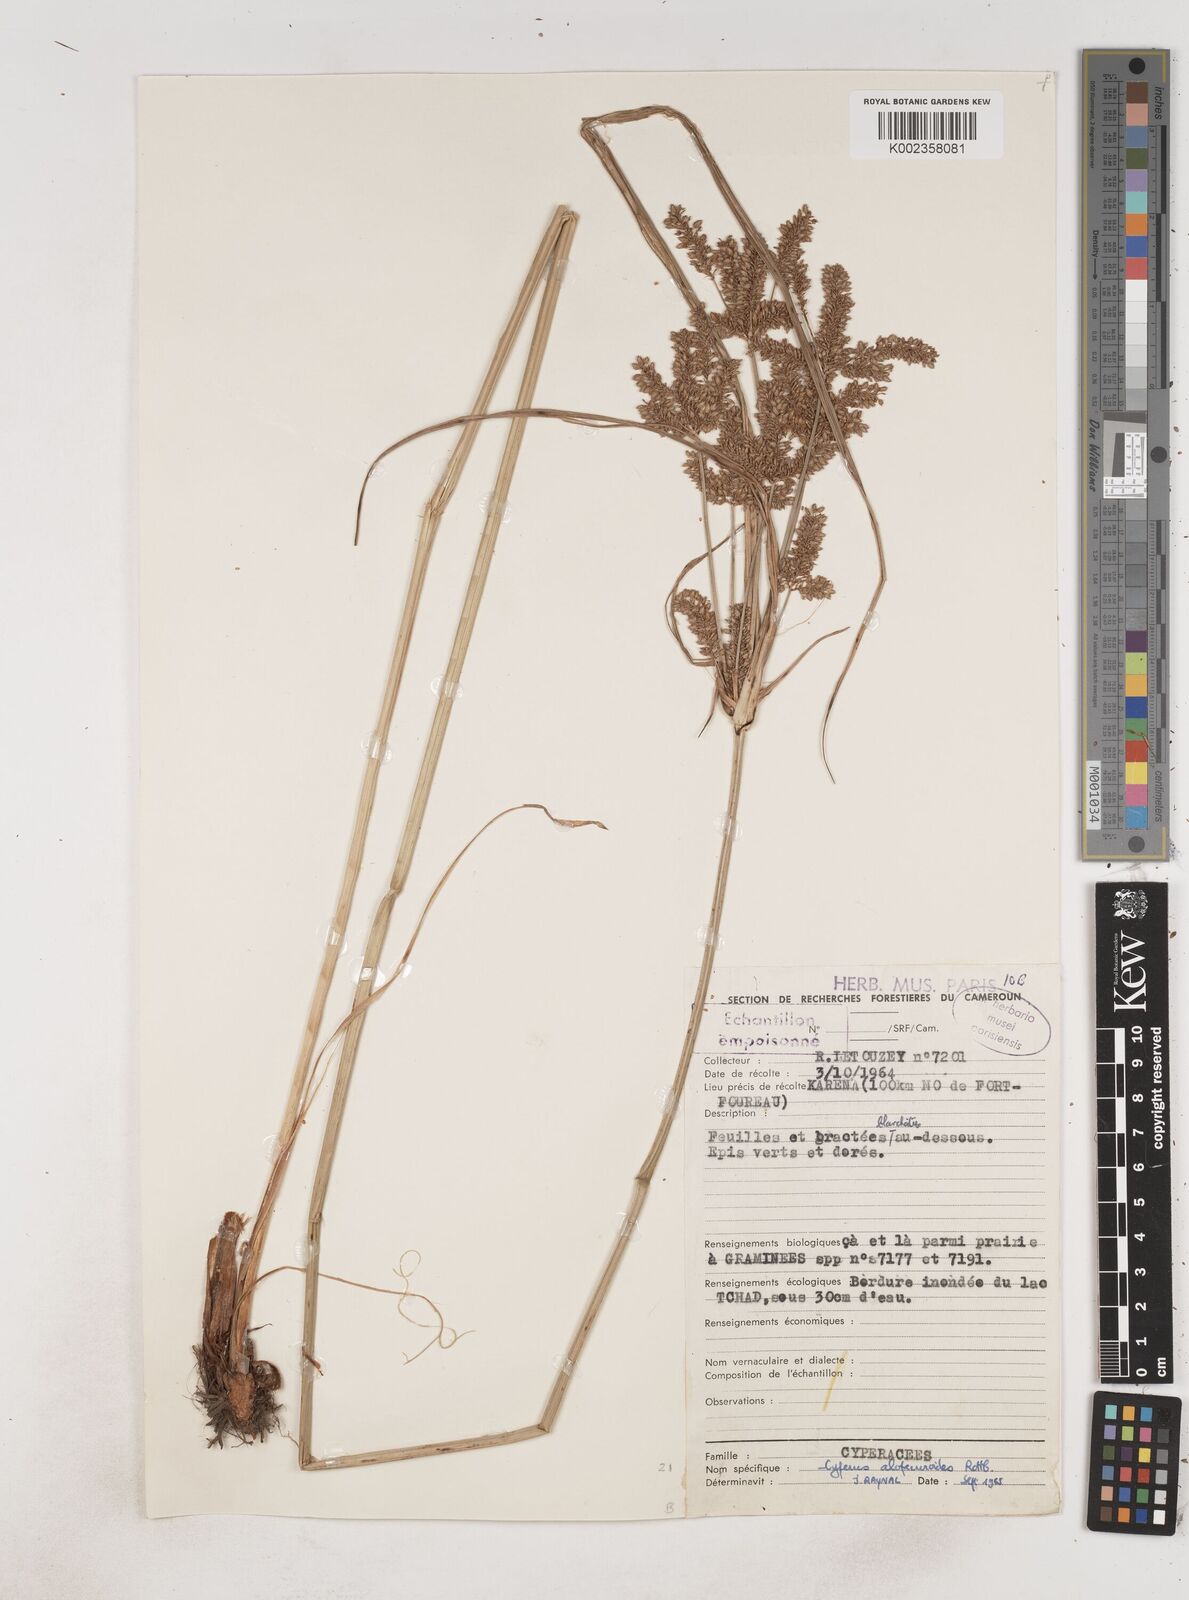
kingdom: Plantae
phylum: Tracheophyta
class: Liliopsida
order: Poales
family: Cyperaceae
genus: Cyperus
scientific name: Cyperus alopecuroides
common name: Foxtail flatsedge
